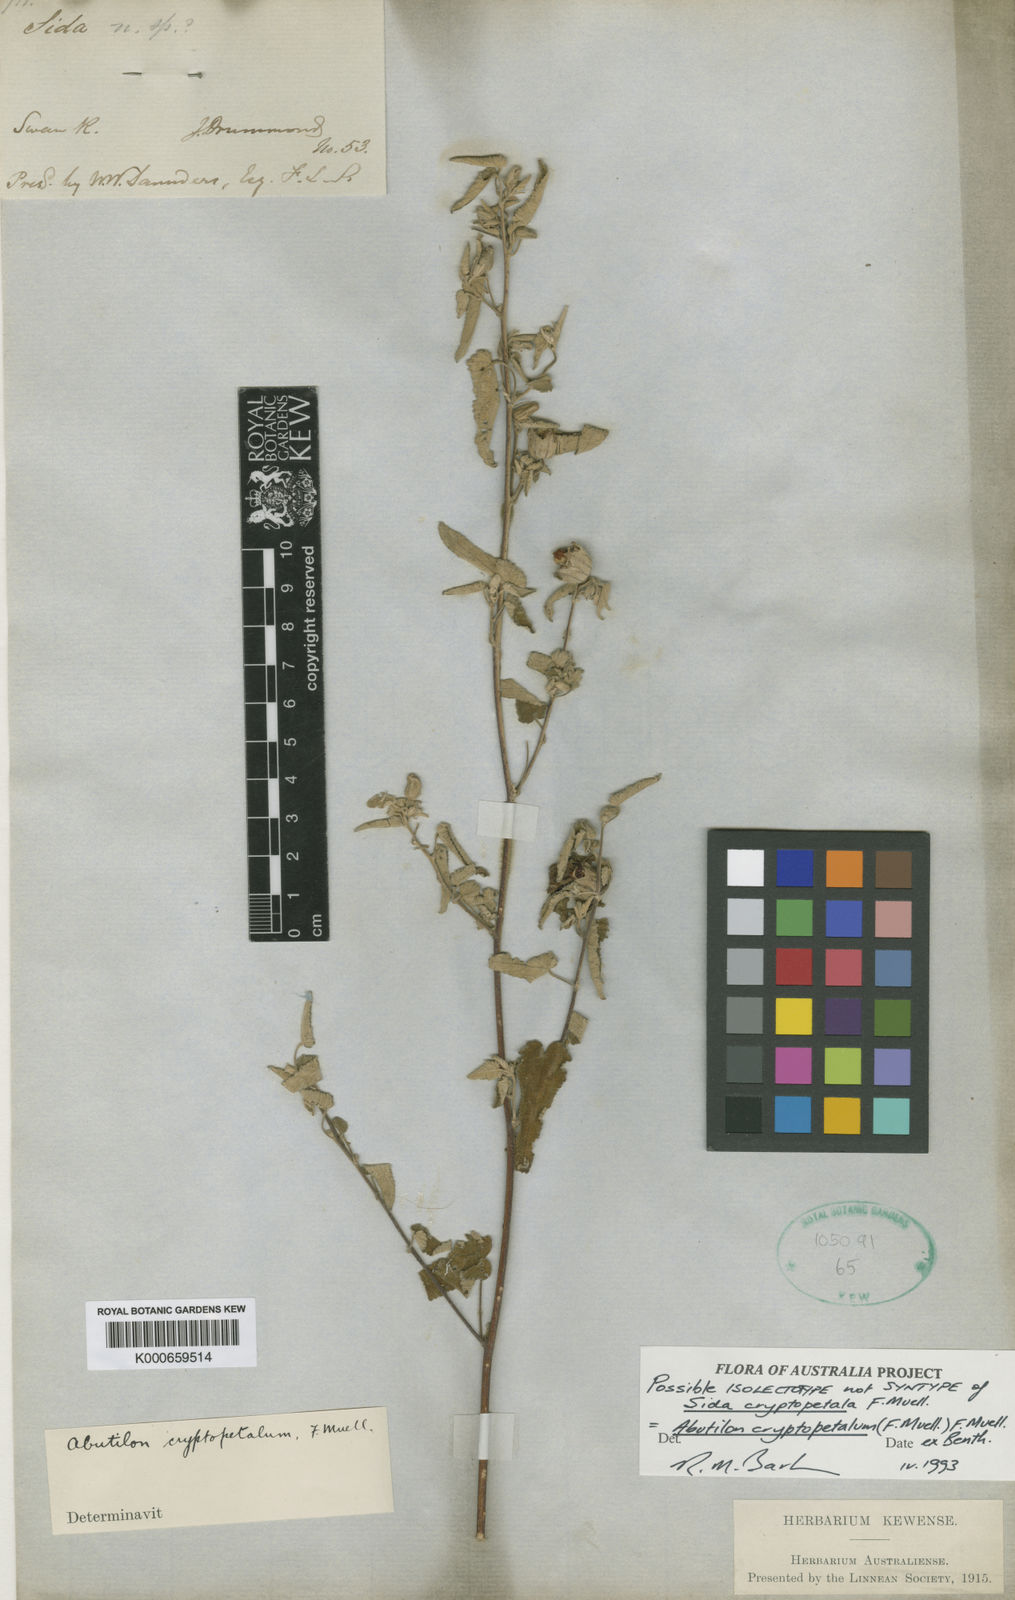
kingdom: Plantae
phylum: Tracheophyta
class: Magnoliopsida
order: Malvales
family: Malvaceae
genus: Abutilon
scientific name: Abutilon cryptopetalum
